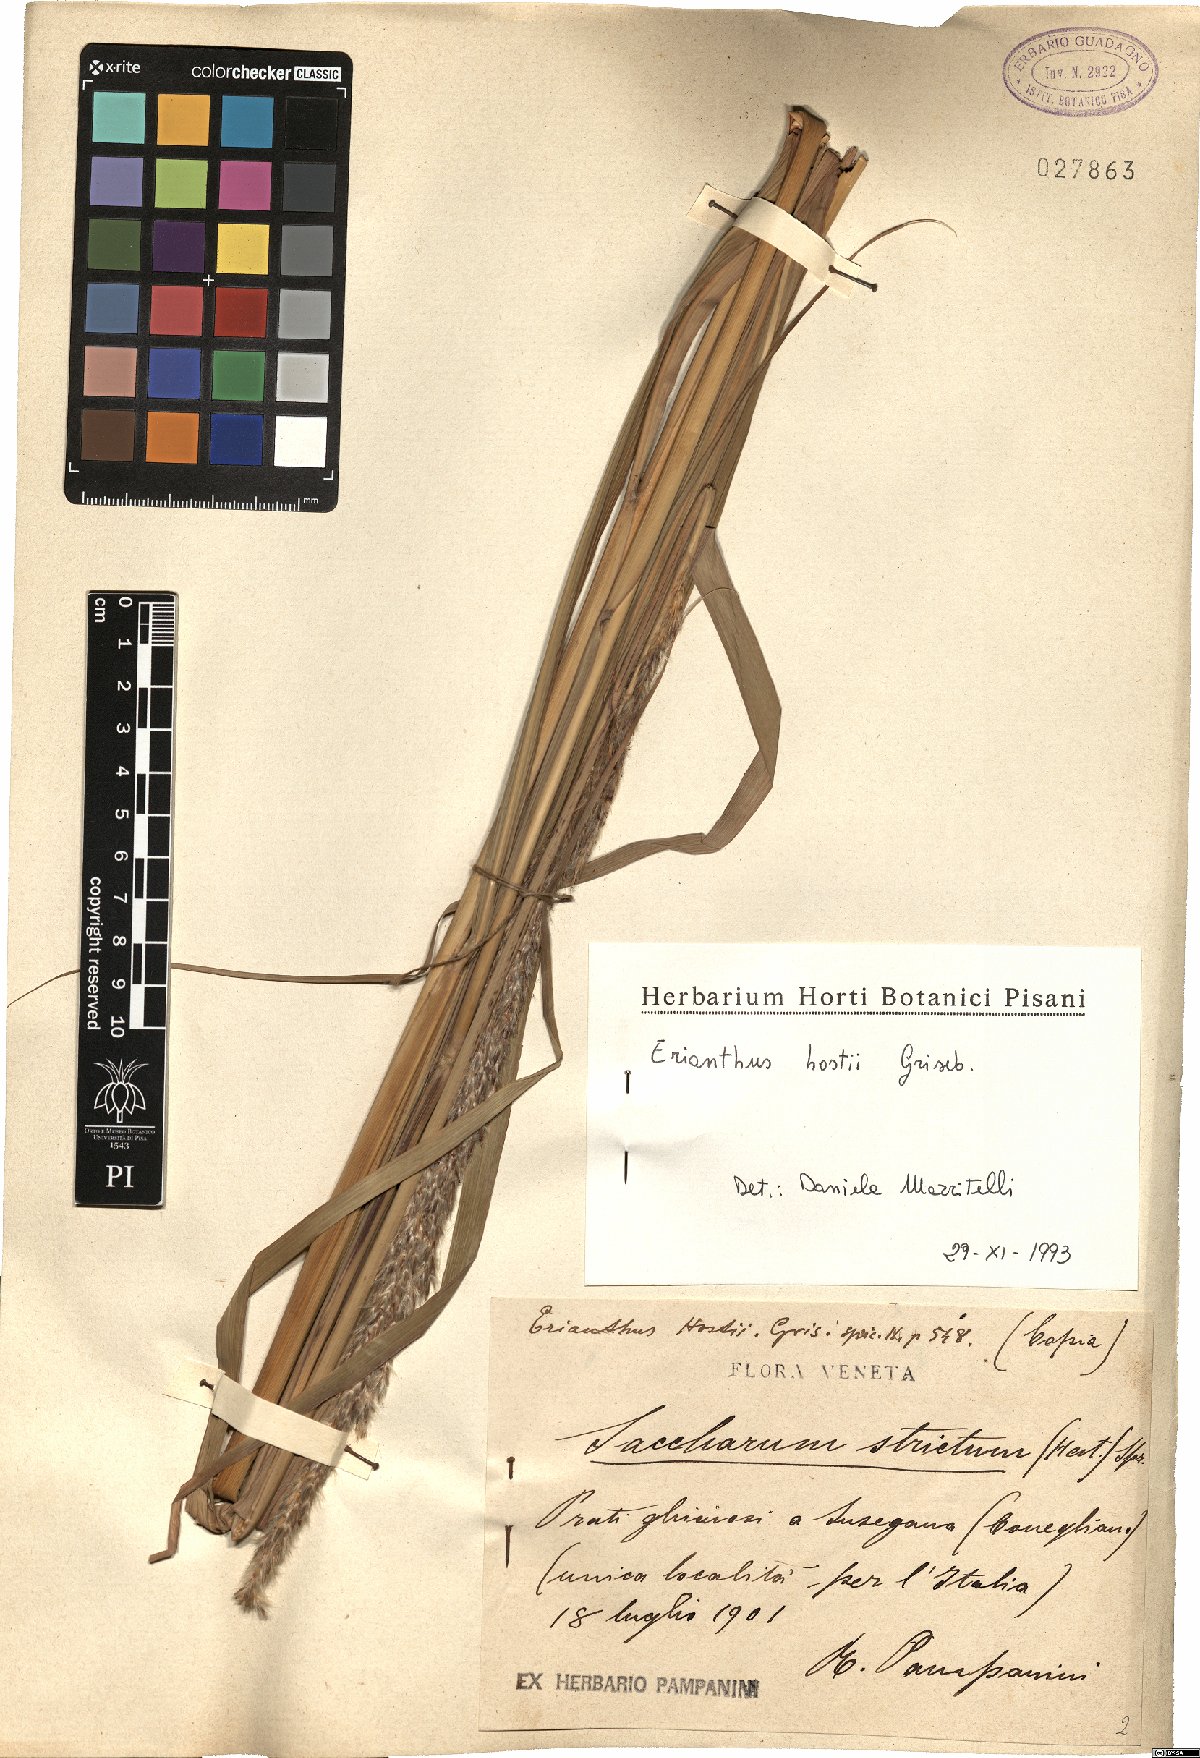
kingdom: Plantae
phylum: Tracheophyta
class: Liliopsida
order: Poales
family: Poaceae
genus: Tripidium
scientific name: Tripidium strictum
